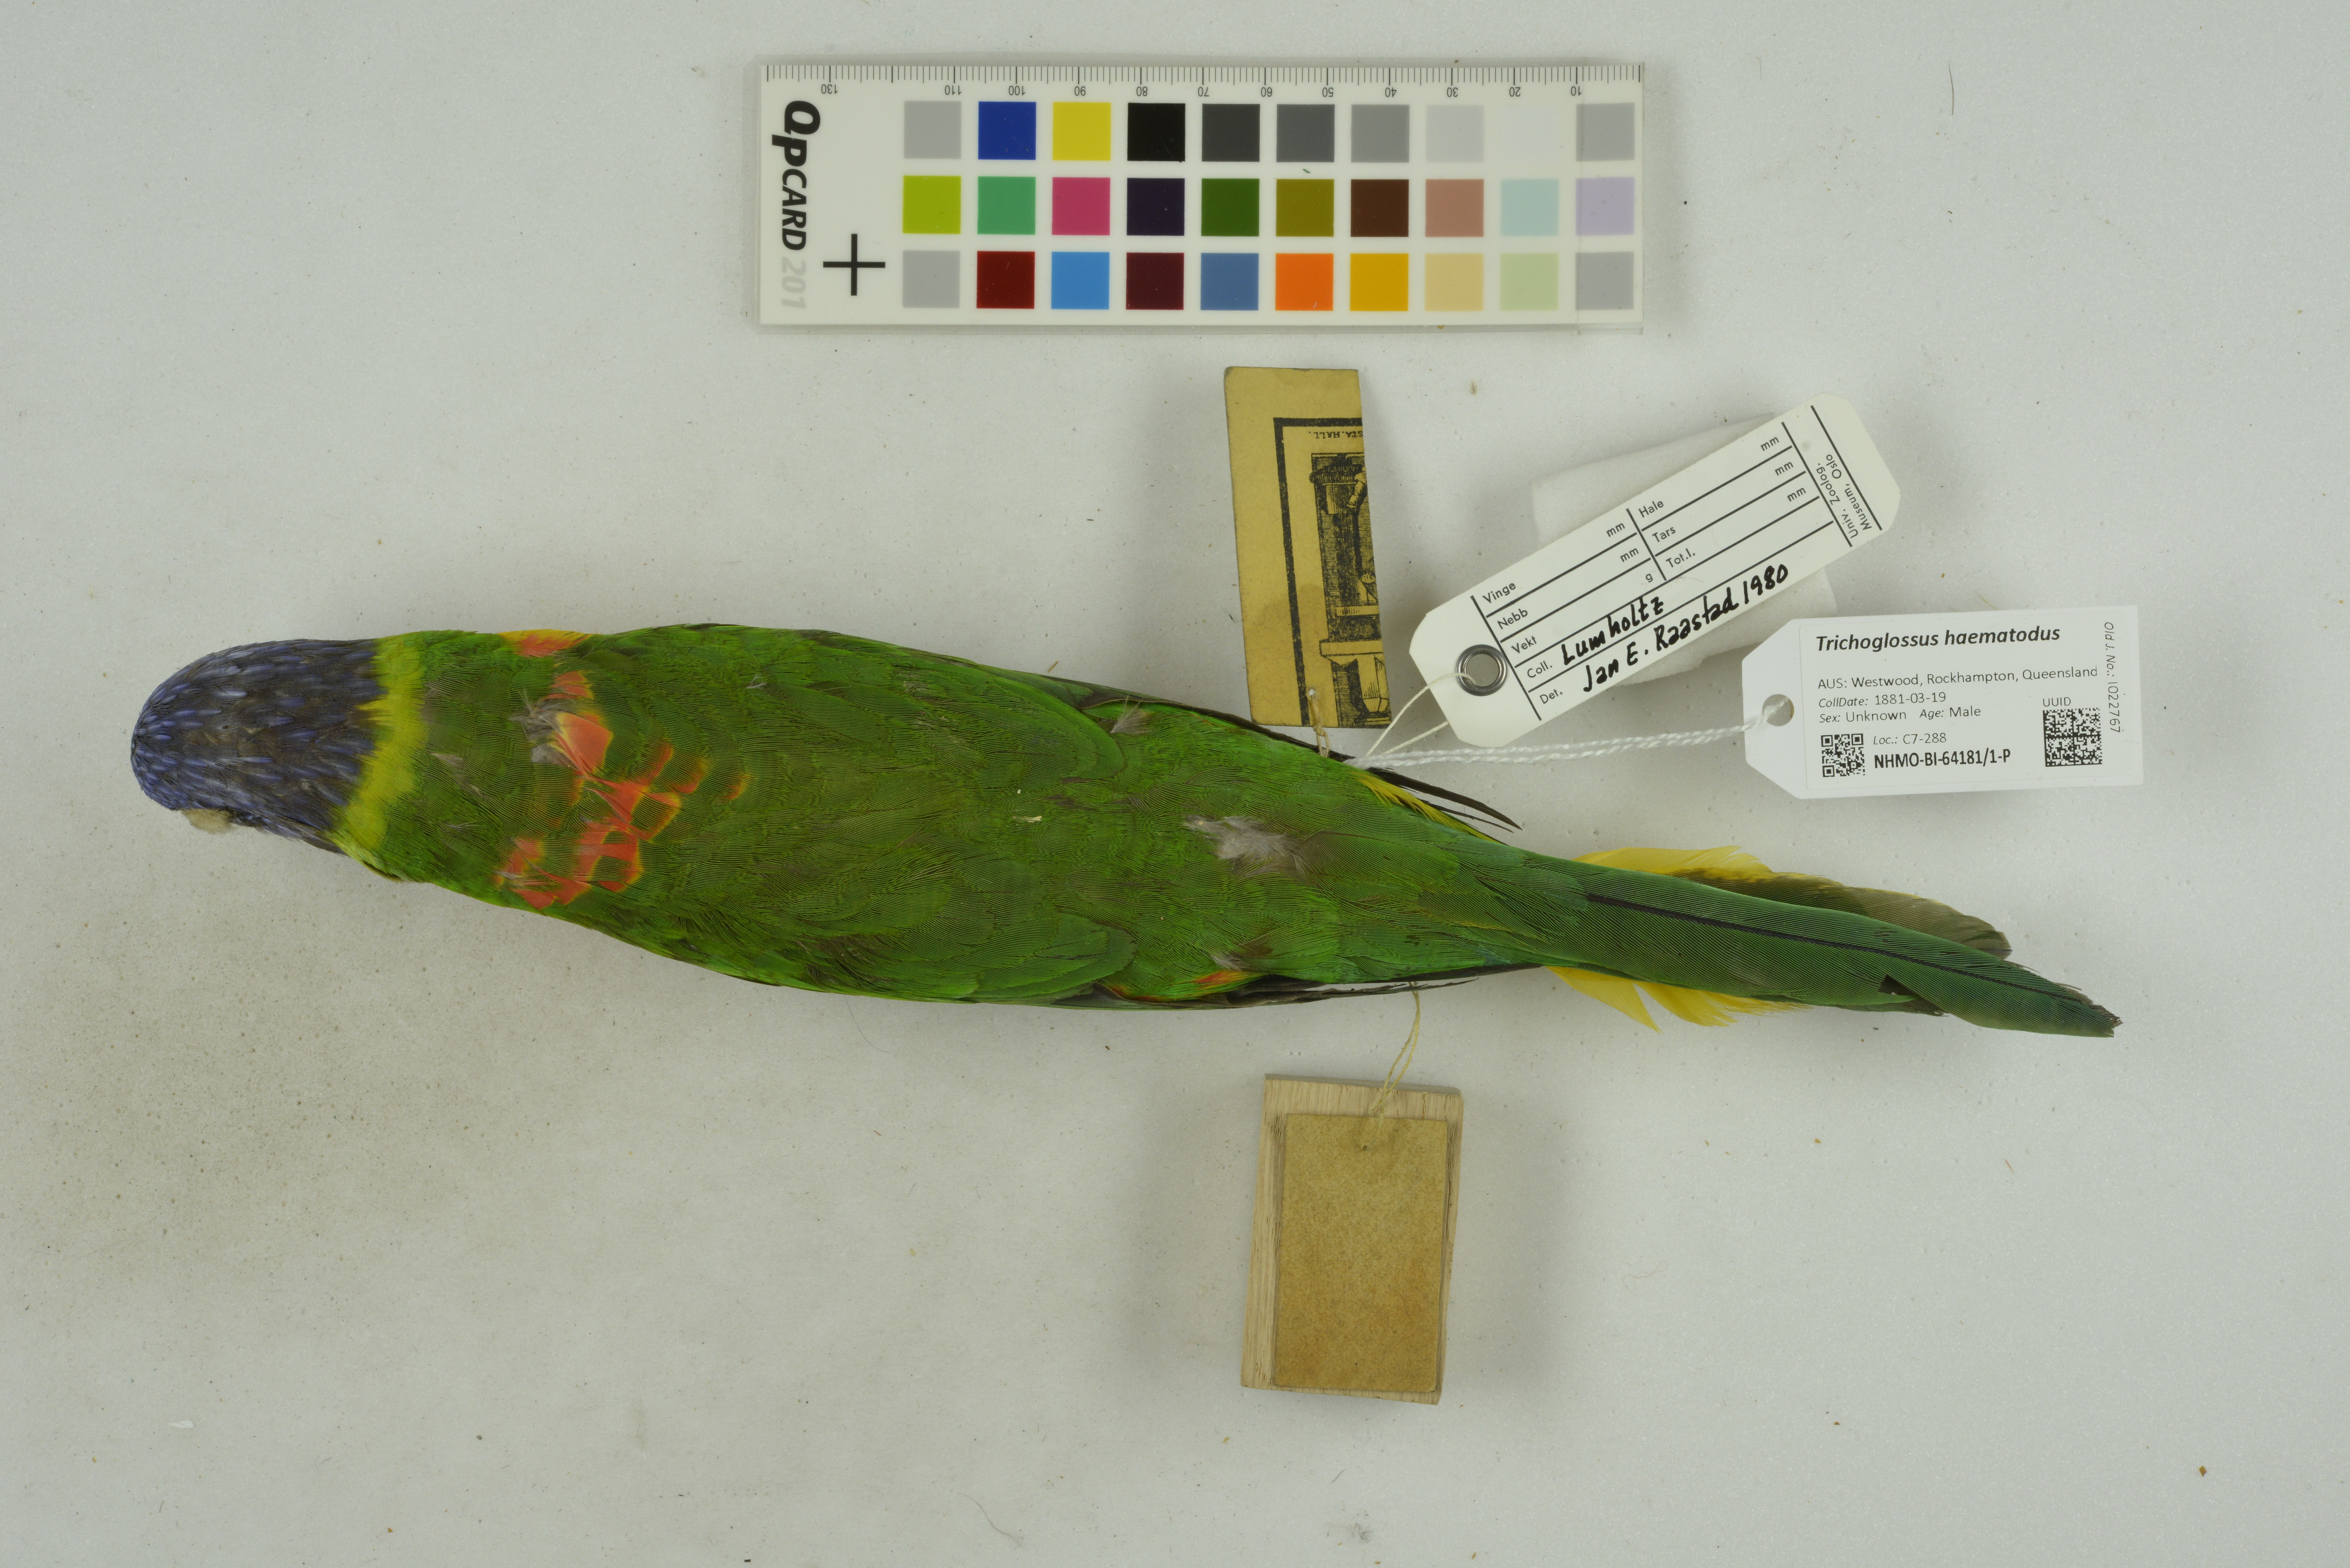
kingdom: Animalia
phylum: Chordata
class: Aves
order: Psittaciformes
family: Psittacidae
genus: Trichoglossus
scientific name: Trichoglossus haematodus
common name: Coconut lorikeet
